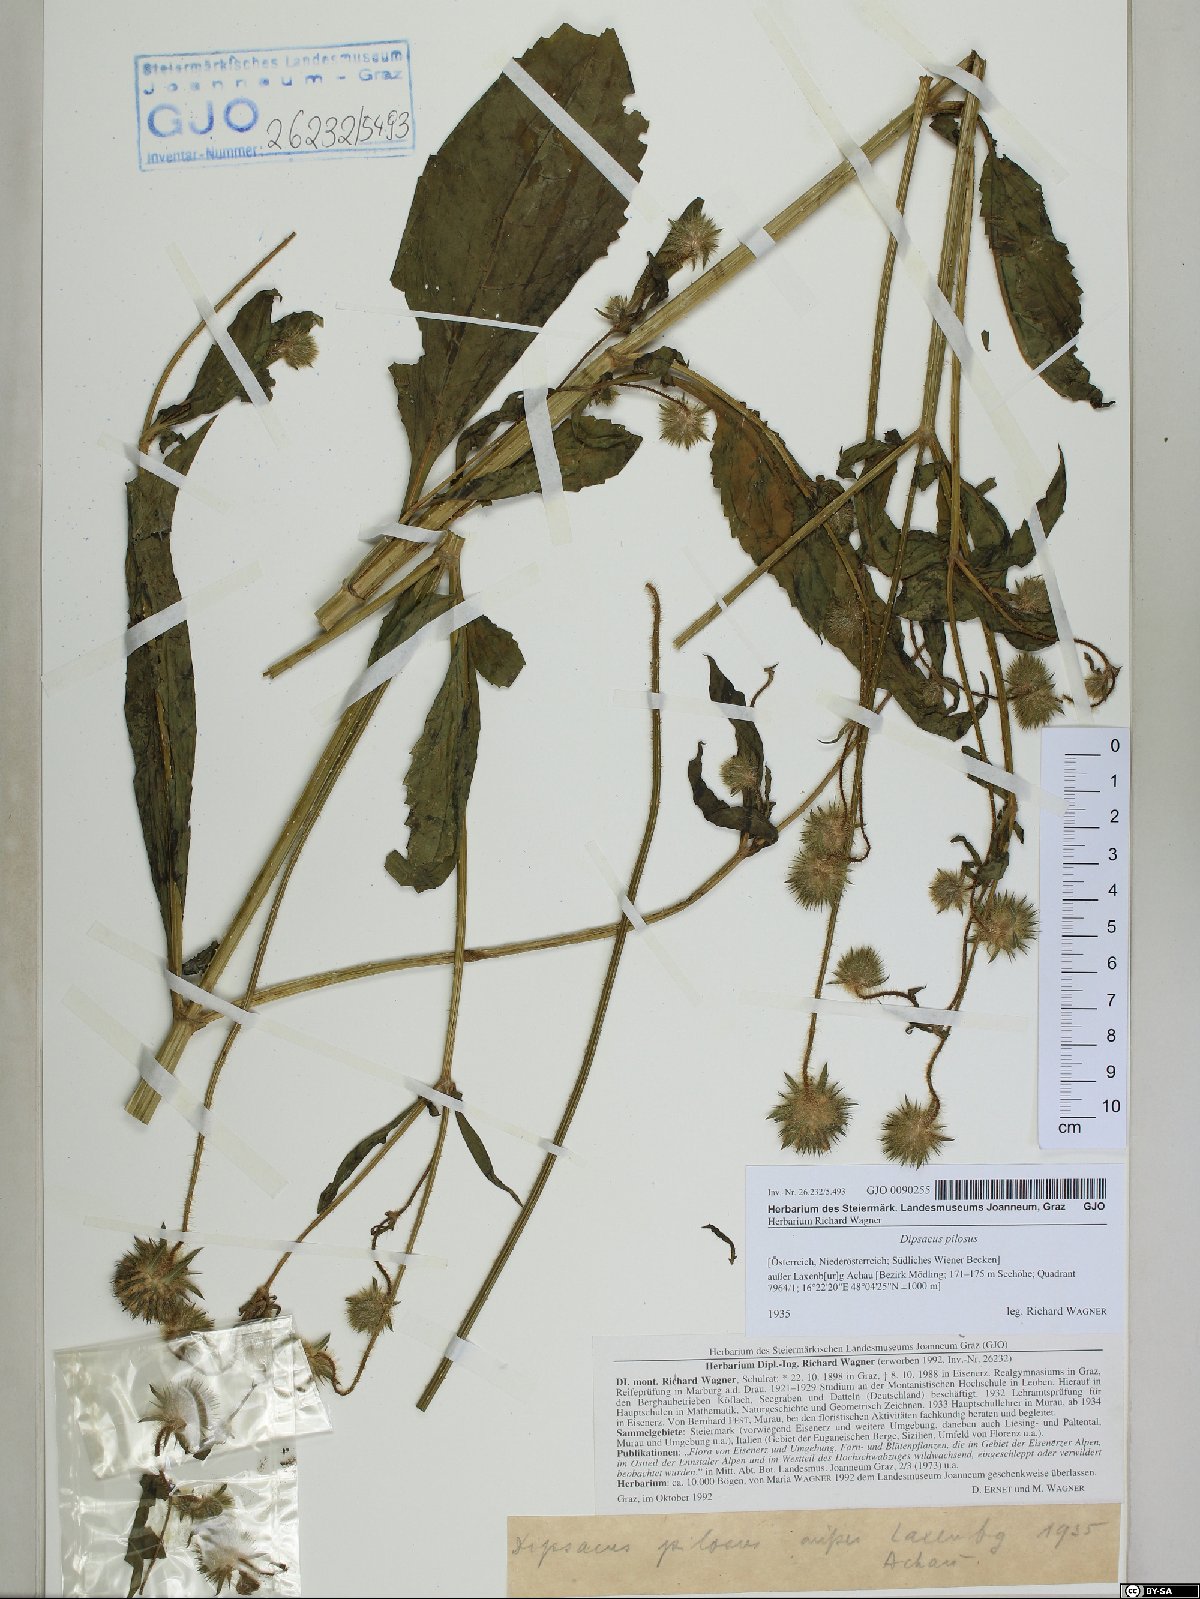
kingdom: Plantae
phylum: Tracheophyta
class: Magnoliopsida
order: Dipsacales
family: Caprifoliaceae
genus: Dipsacus
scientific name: Dipsacus pilosus
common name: Small teasel
